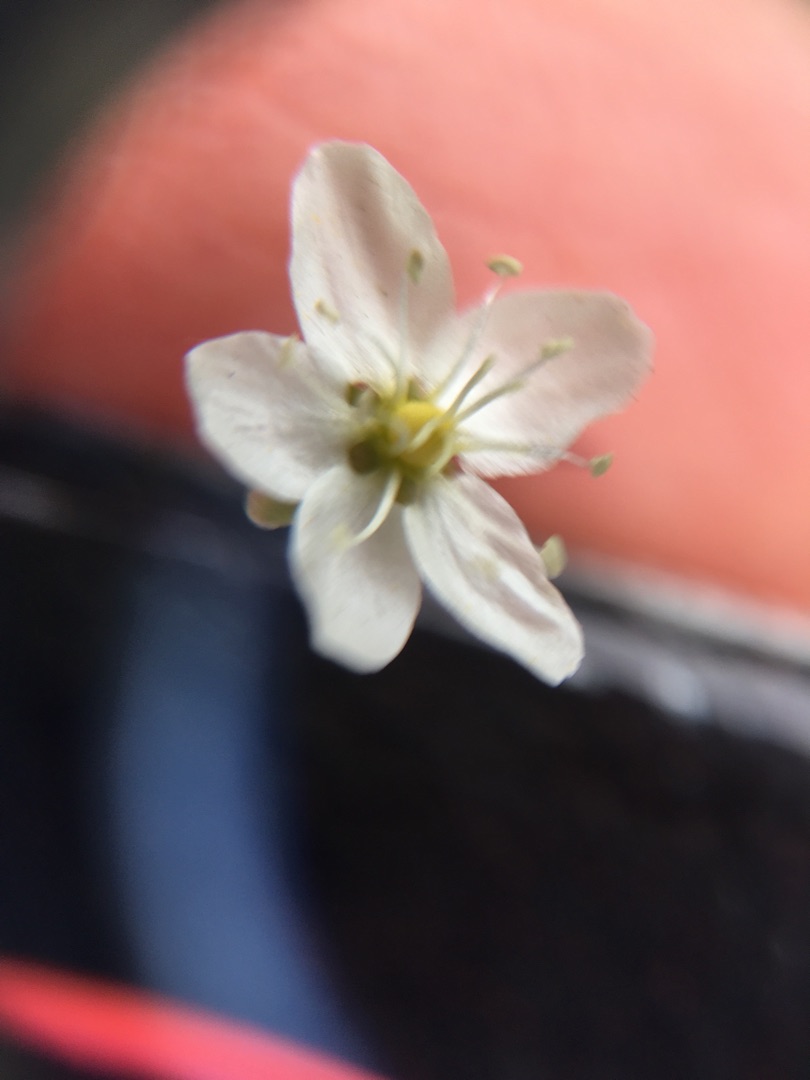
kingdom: Plantae
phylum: Tracheophyta
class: Magnoliopsida
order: Caryophyllales
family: Caryophyllaceae
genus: Sagina
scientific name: Sagina nodosa
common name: Knude-firling
